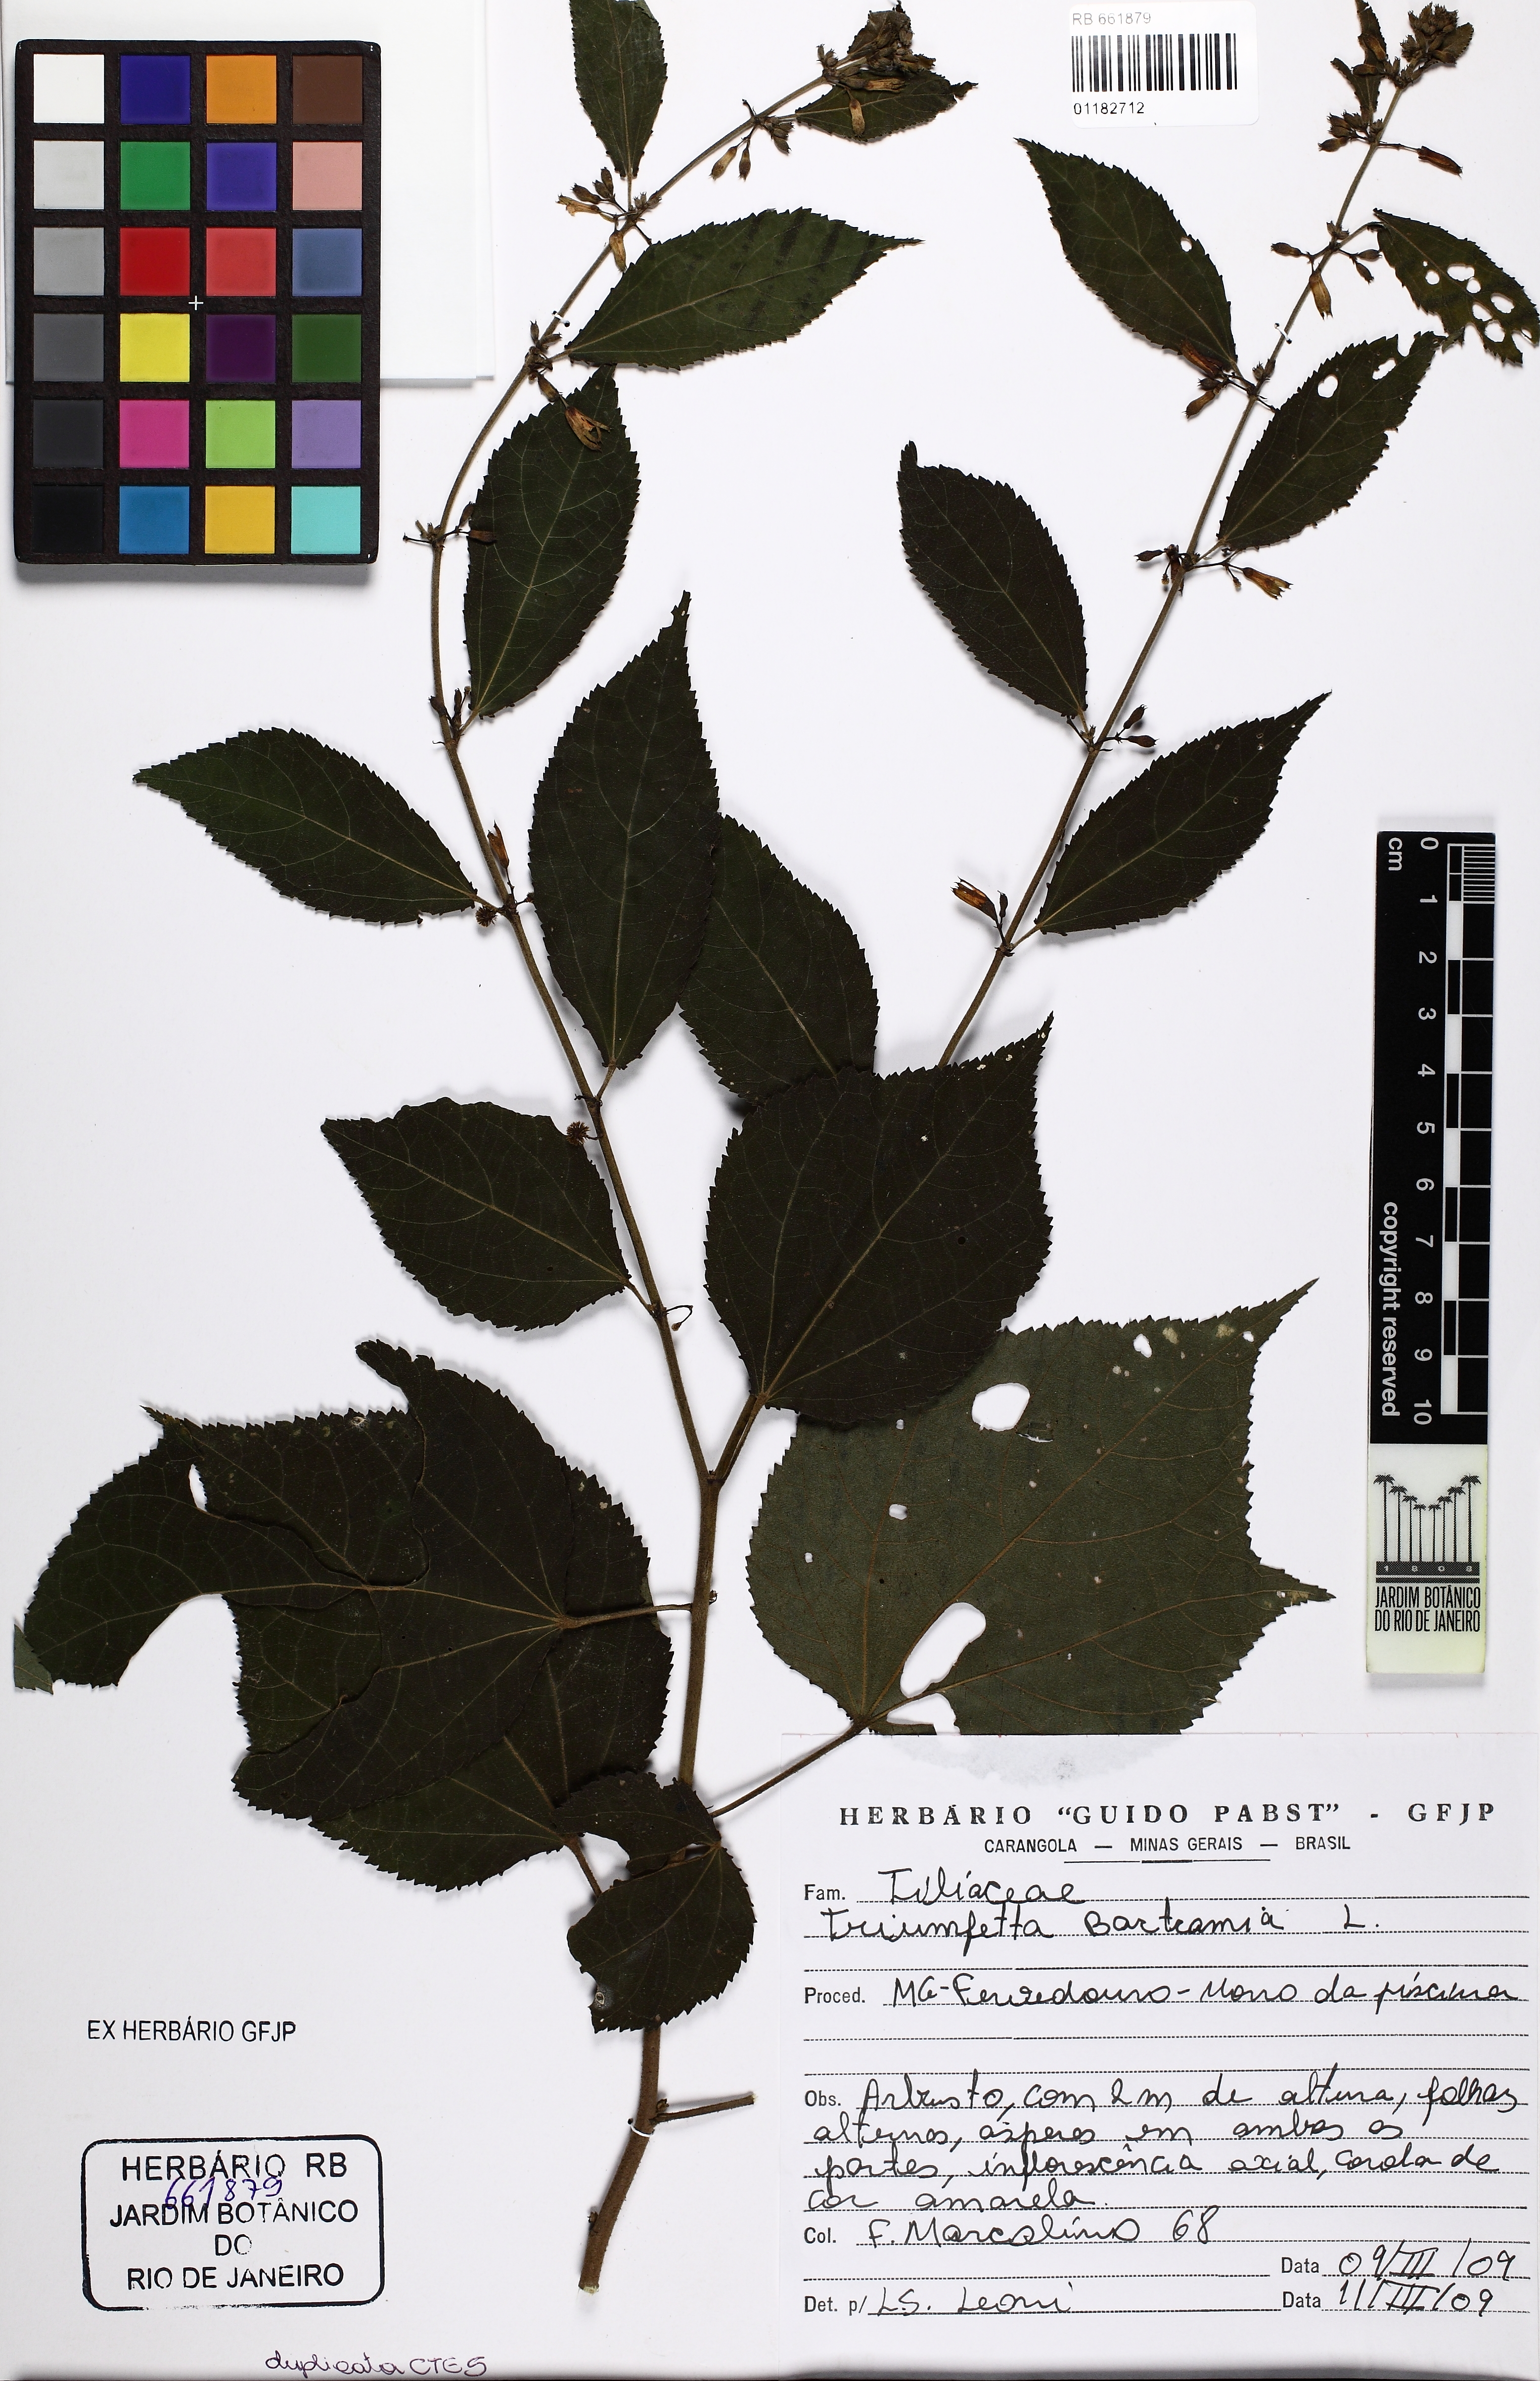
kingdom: Plantae
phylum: Tracheophyta
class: Magnoliopsida
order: Malvales
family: Malvaceae
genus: Triumfetta
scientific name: Triumfetta rhomboidea
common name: Diamond burbark
